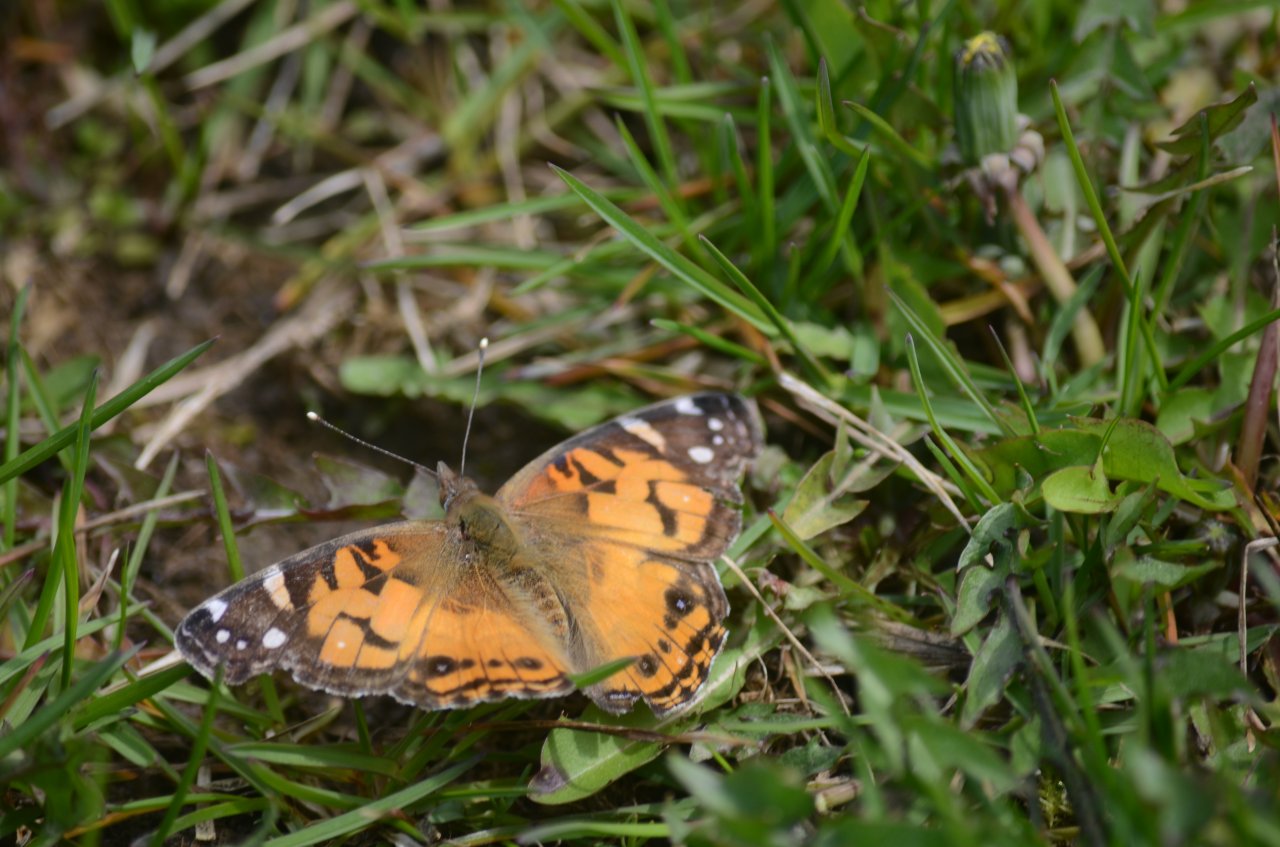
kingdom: Animalia
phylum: Arthropoda
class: Insecta
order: Lepidoptera
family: Nymphalidae
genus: Vanessa
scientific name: Vanessa virginiensis
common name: American Lady
